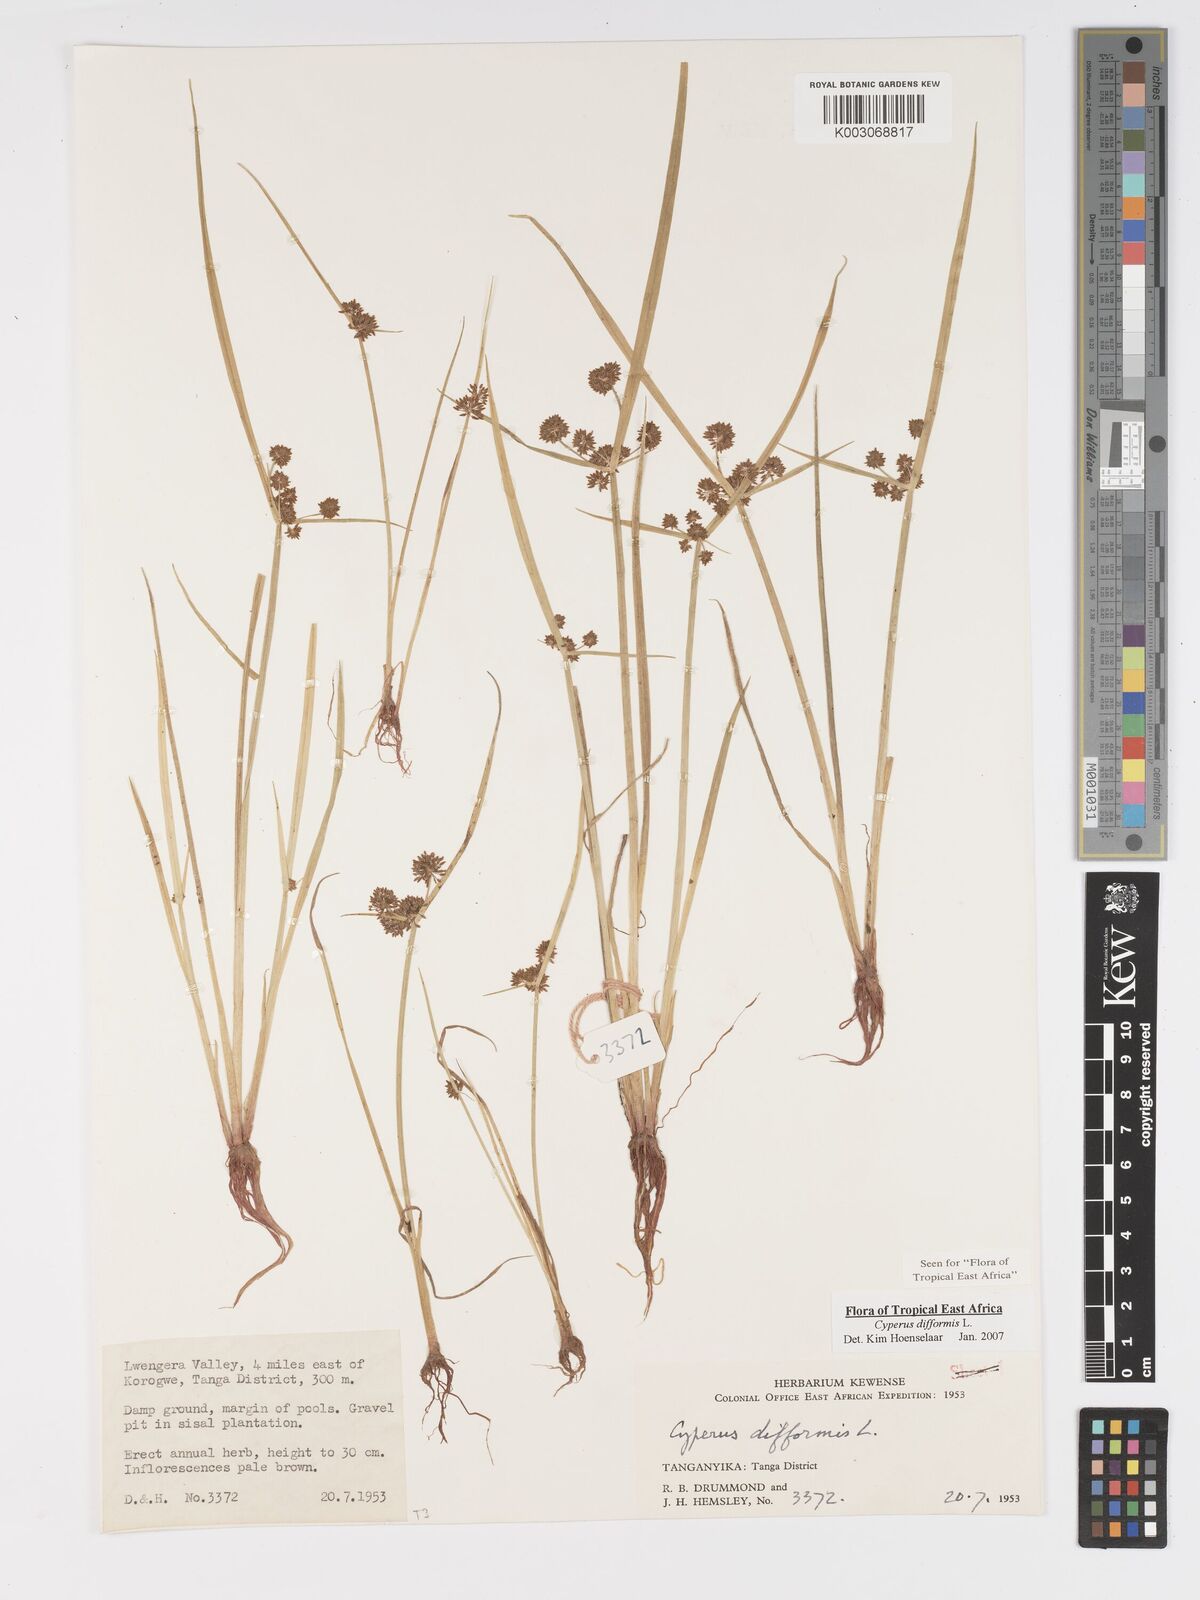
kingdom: Plantae
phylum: Tracheophyta
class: Liliopsida
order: Poales
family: Cyperaceae
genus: Cyperus
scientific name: Cyperus difformis
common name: Variable flatsedge
